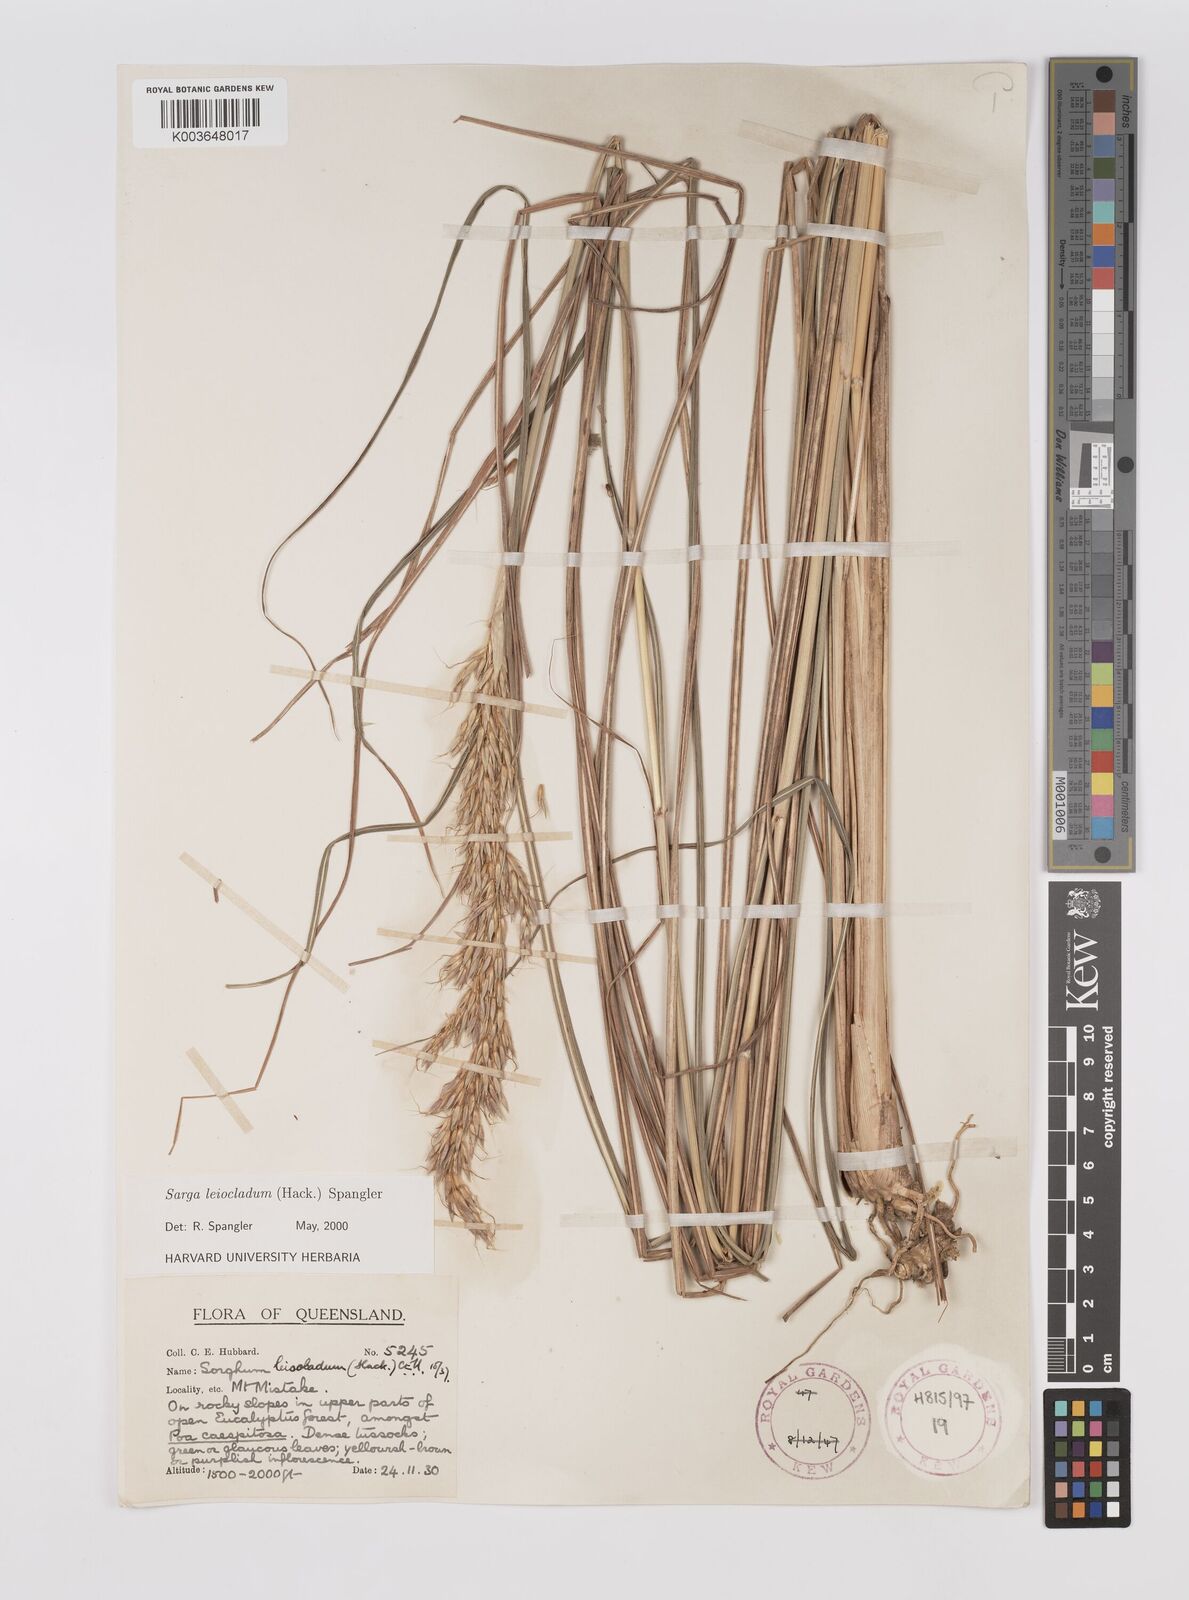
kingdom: Plantae
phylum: Tracheophyta
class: Liliopsida
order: Poales
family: Poaceae
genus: Sarga
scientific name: Sarga leioclada
